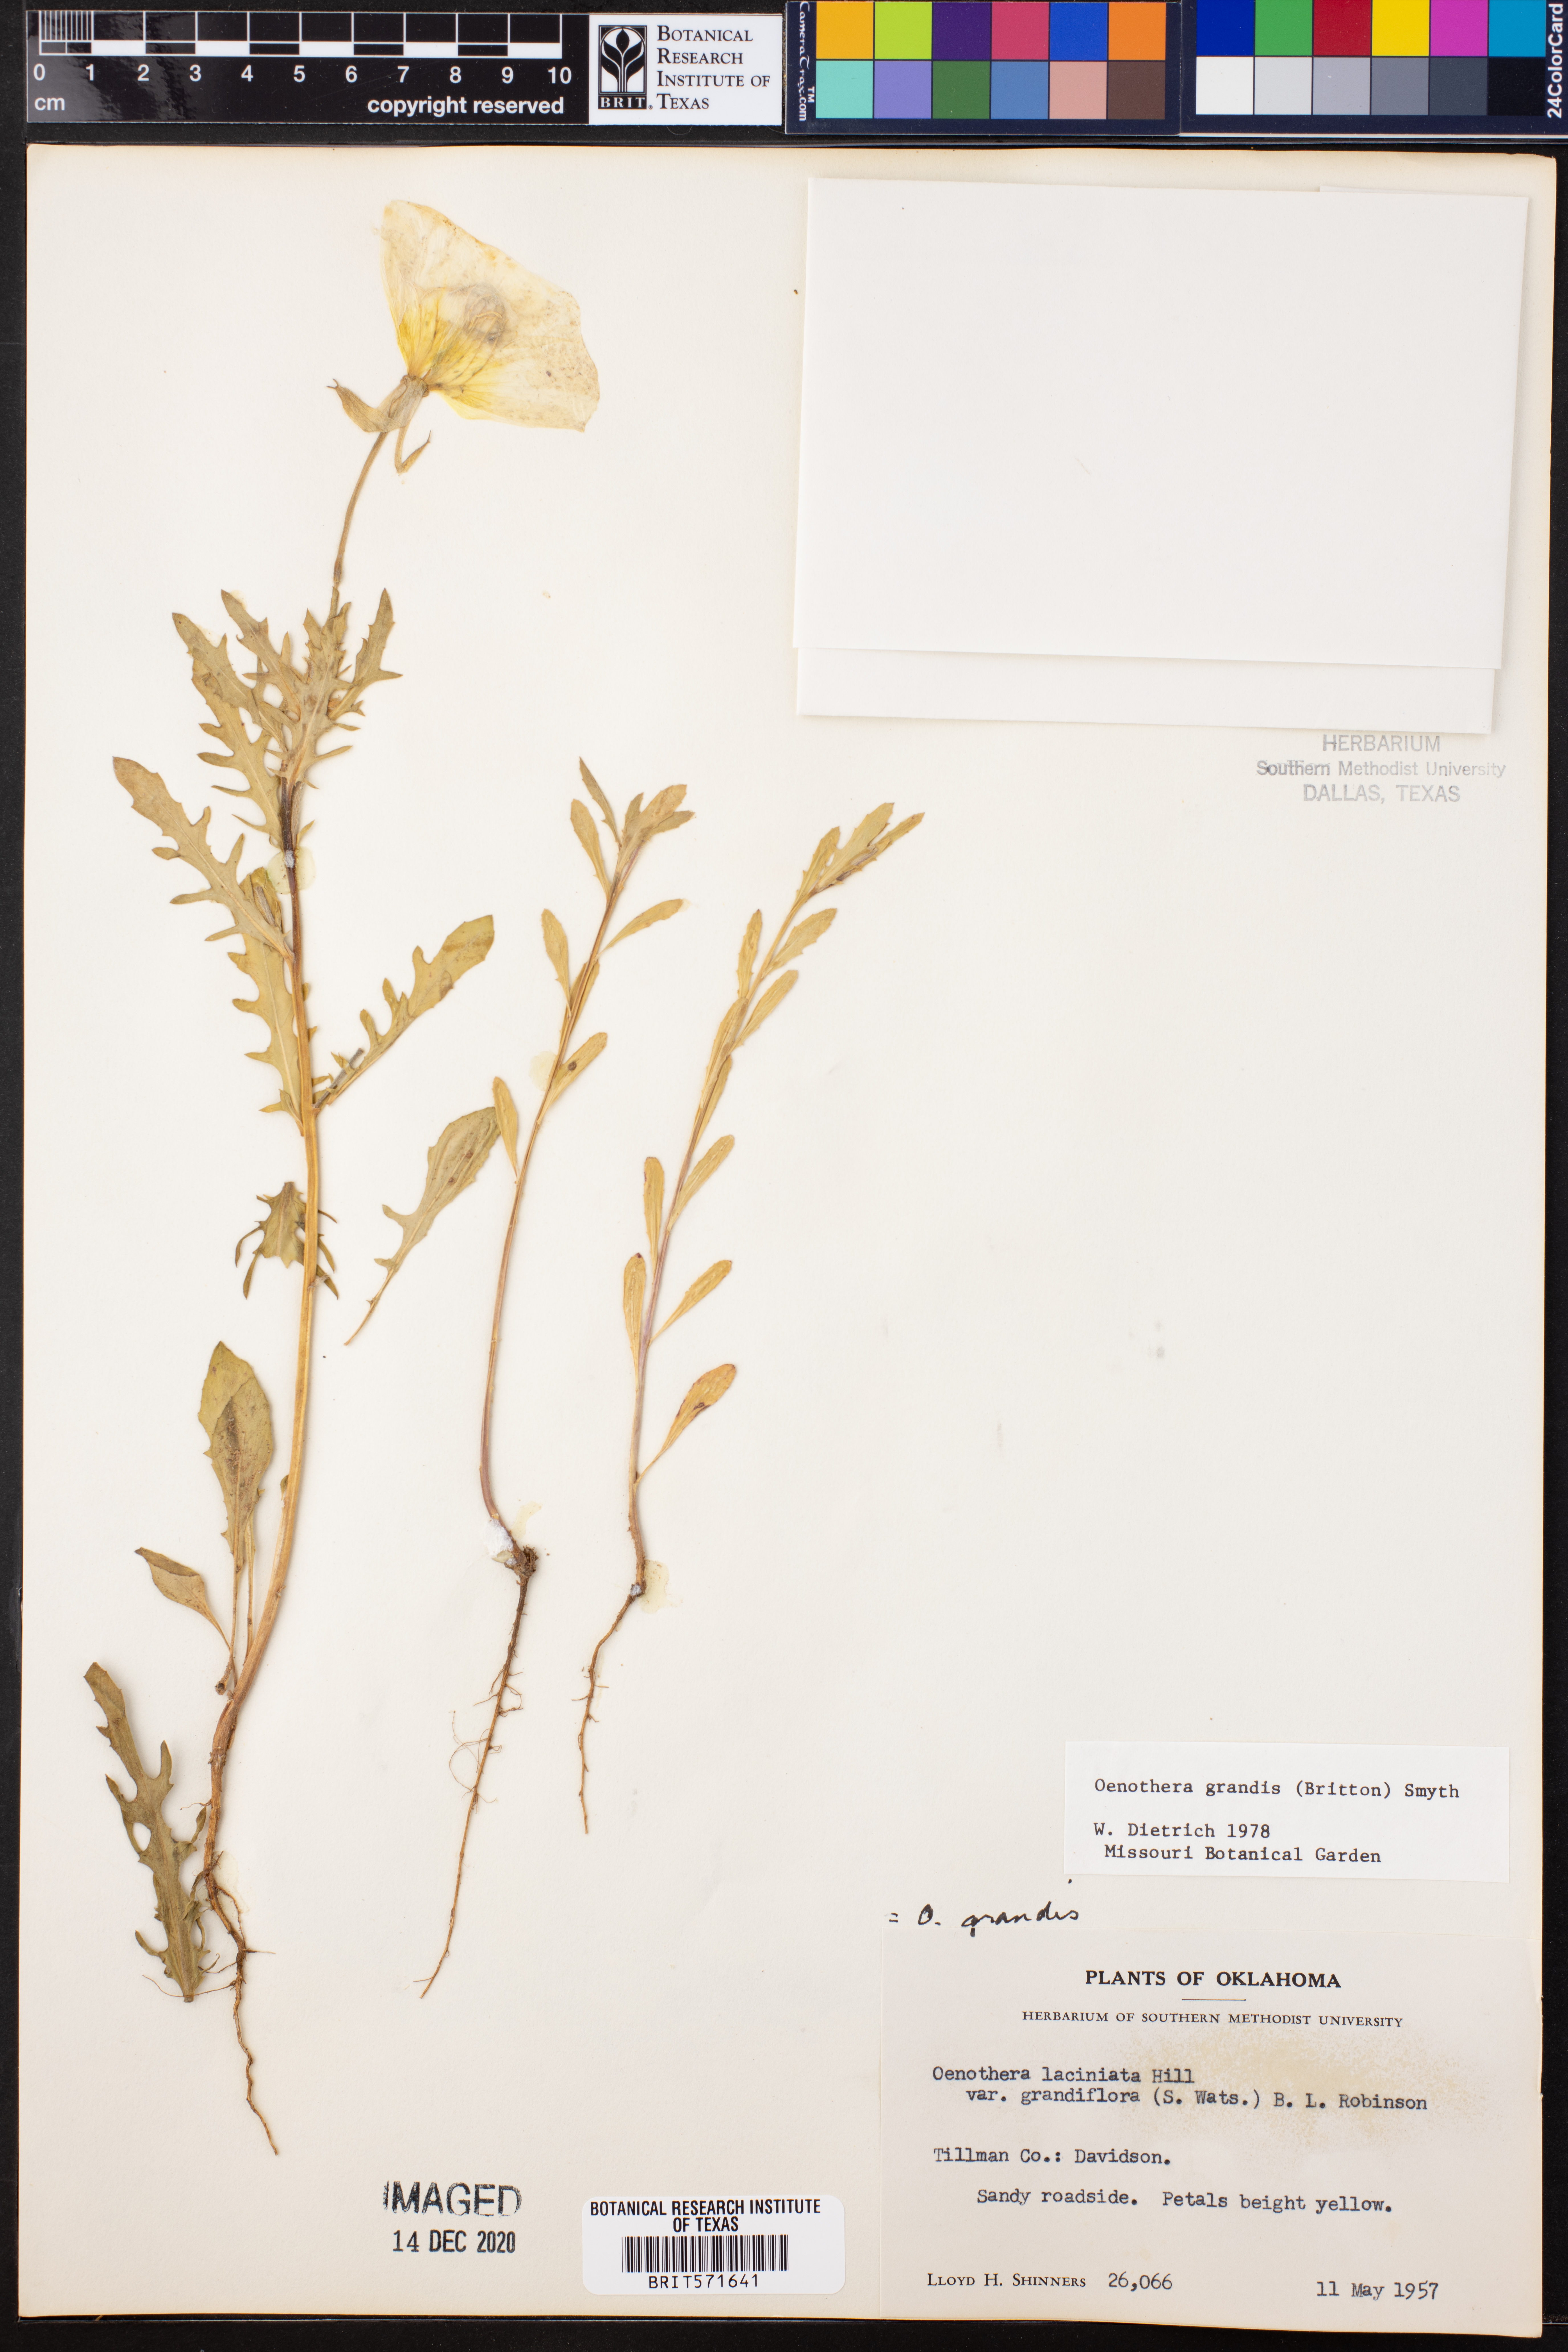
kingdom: Plantae
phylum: Tracheophyta
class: Magnoliopsida
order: Myrtales
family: Onagraceae
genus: Oenothera
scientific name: Oenothera grandis
